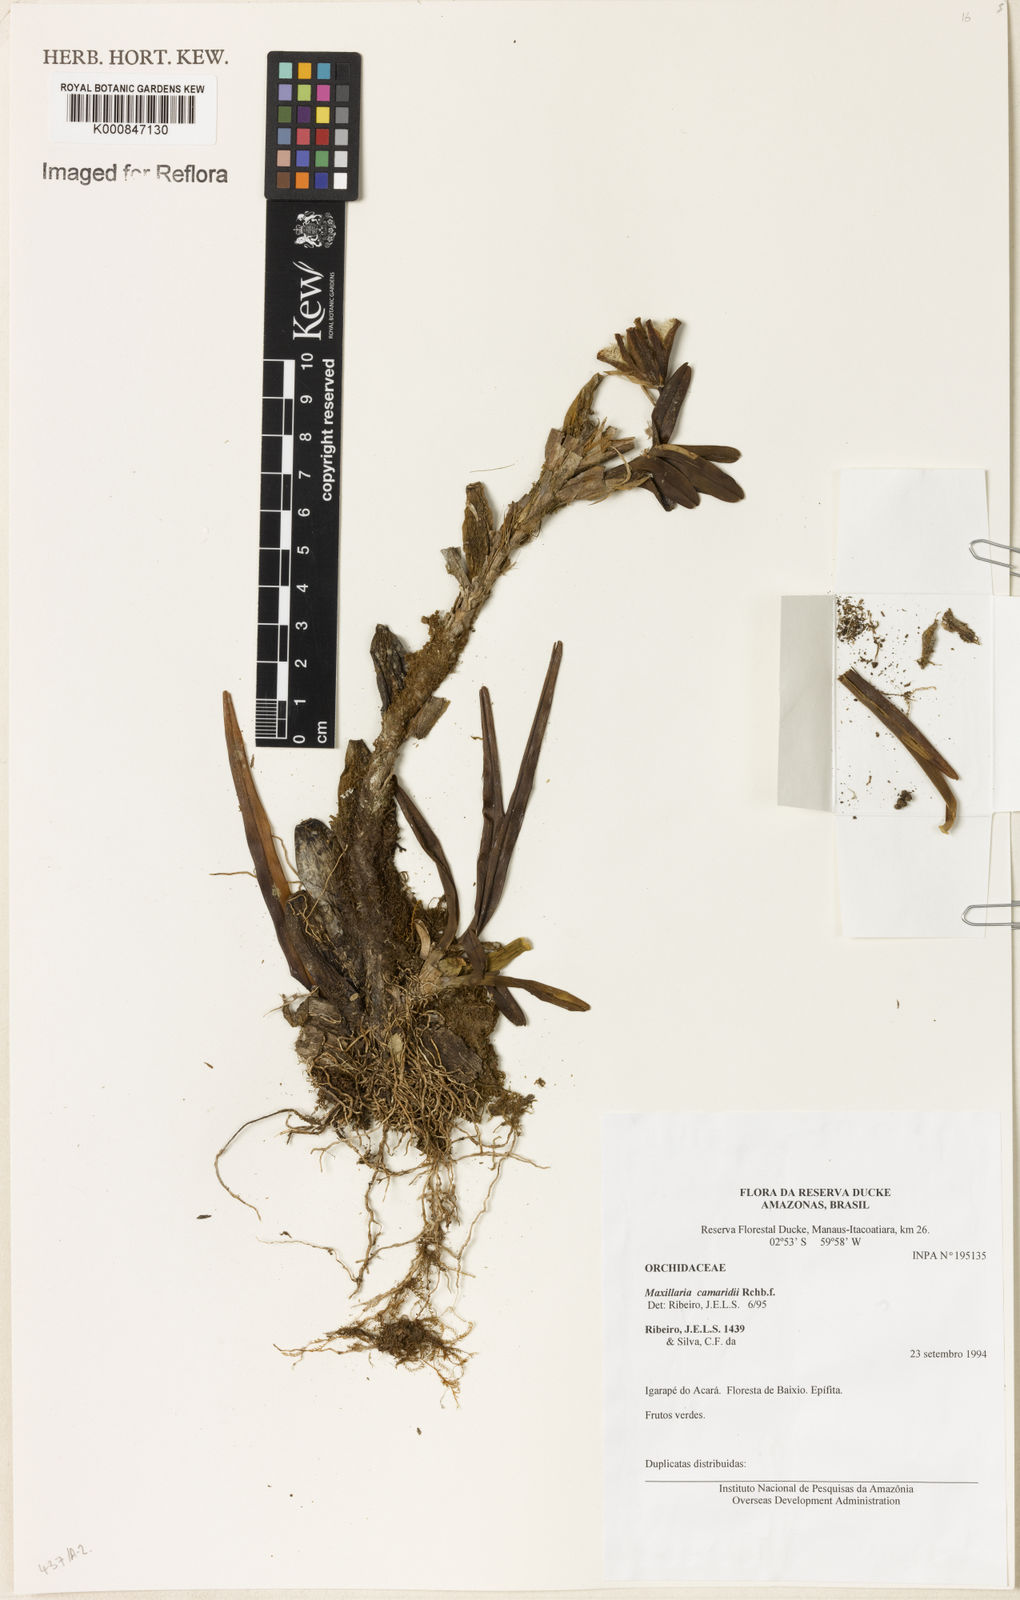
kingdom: Plantae
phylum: Tracheophyta
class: Liliopsida
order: Asparagales
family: Orchidaceae
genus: Maxillaria
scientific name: Maxillaria lutescens
